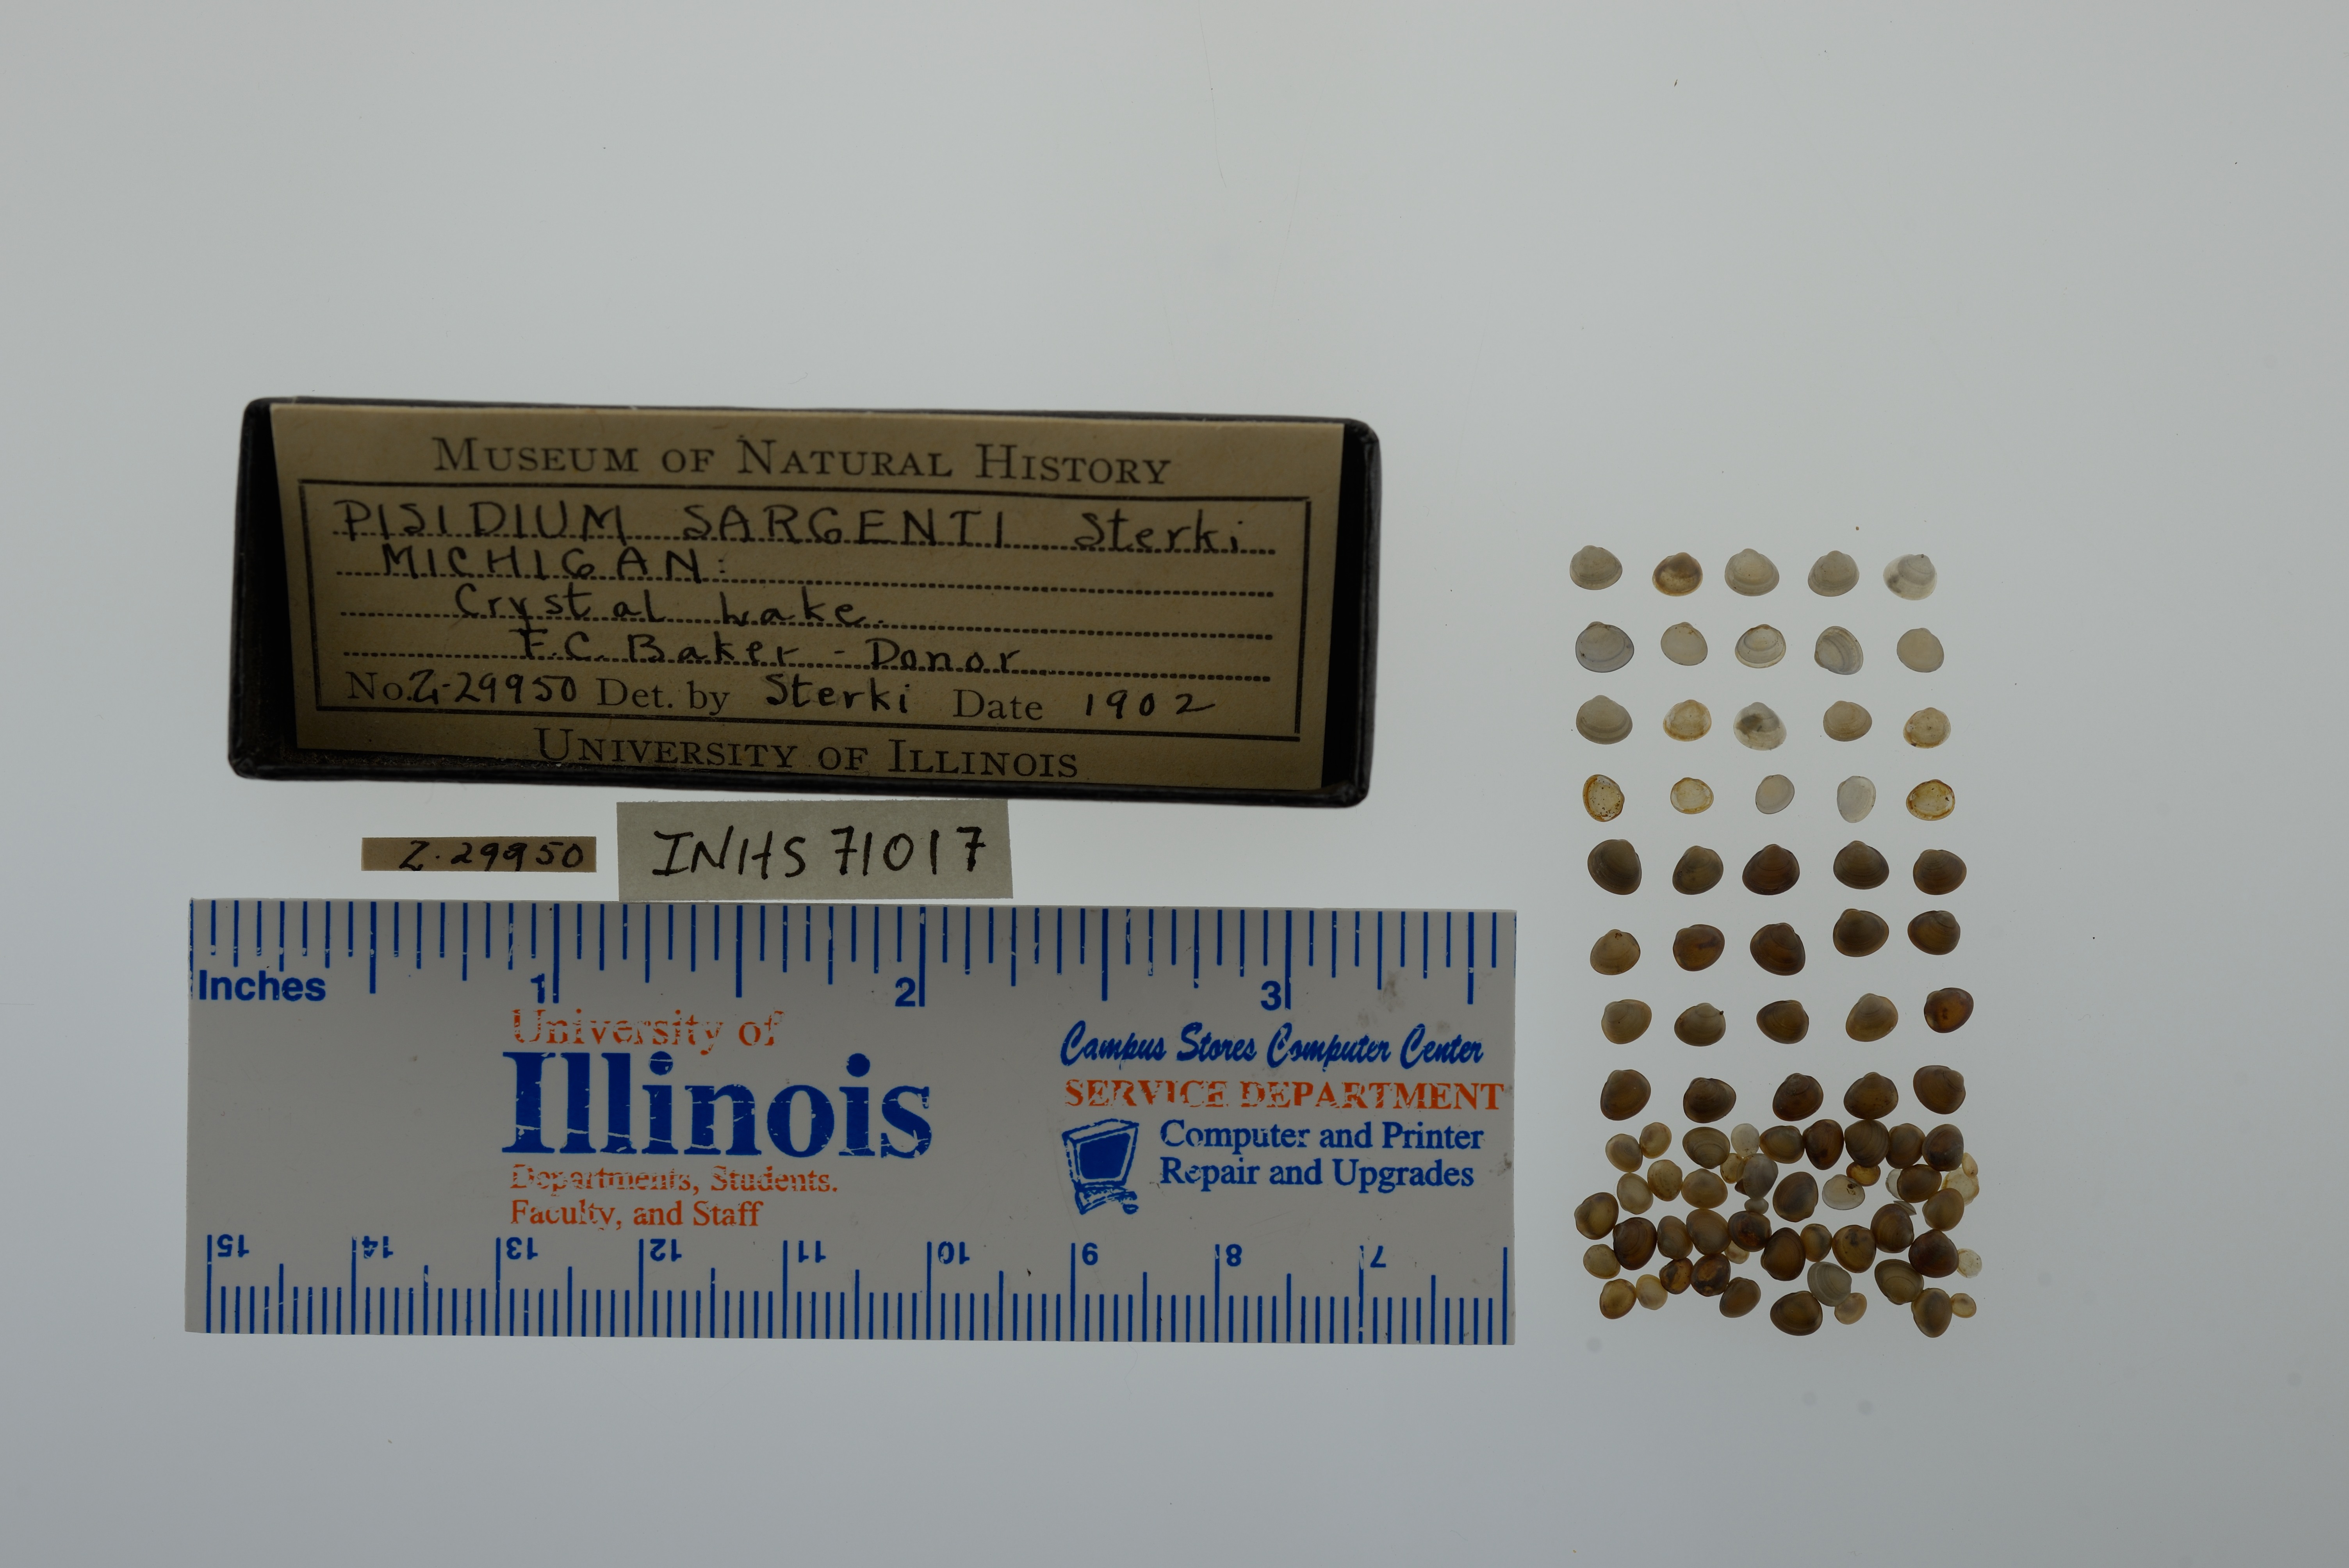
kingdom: Animalia
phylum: Mollusca
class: Bivalvia
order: Sphaeriida
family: Sphaeriidae
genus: Euglesa
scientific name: Euglesa adamsii
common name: Adam peaclam
